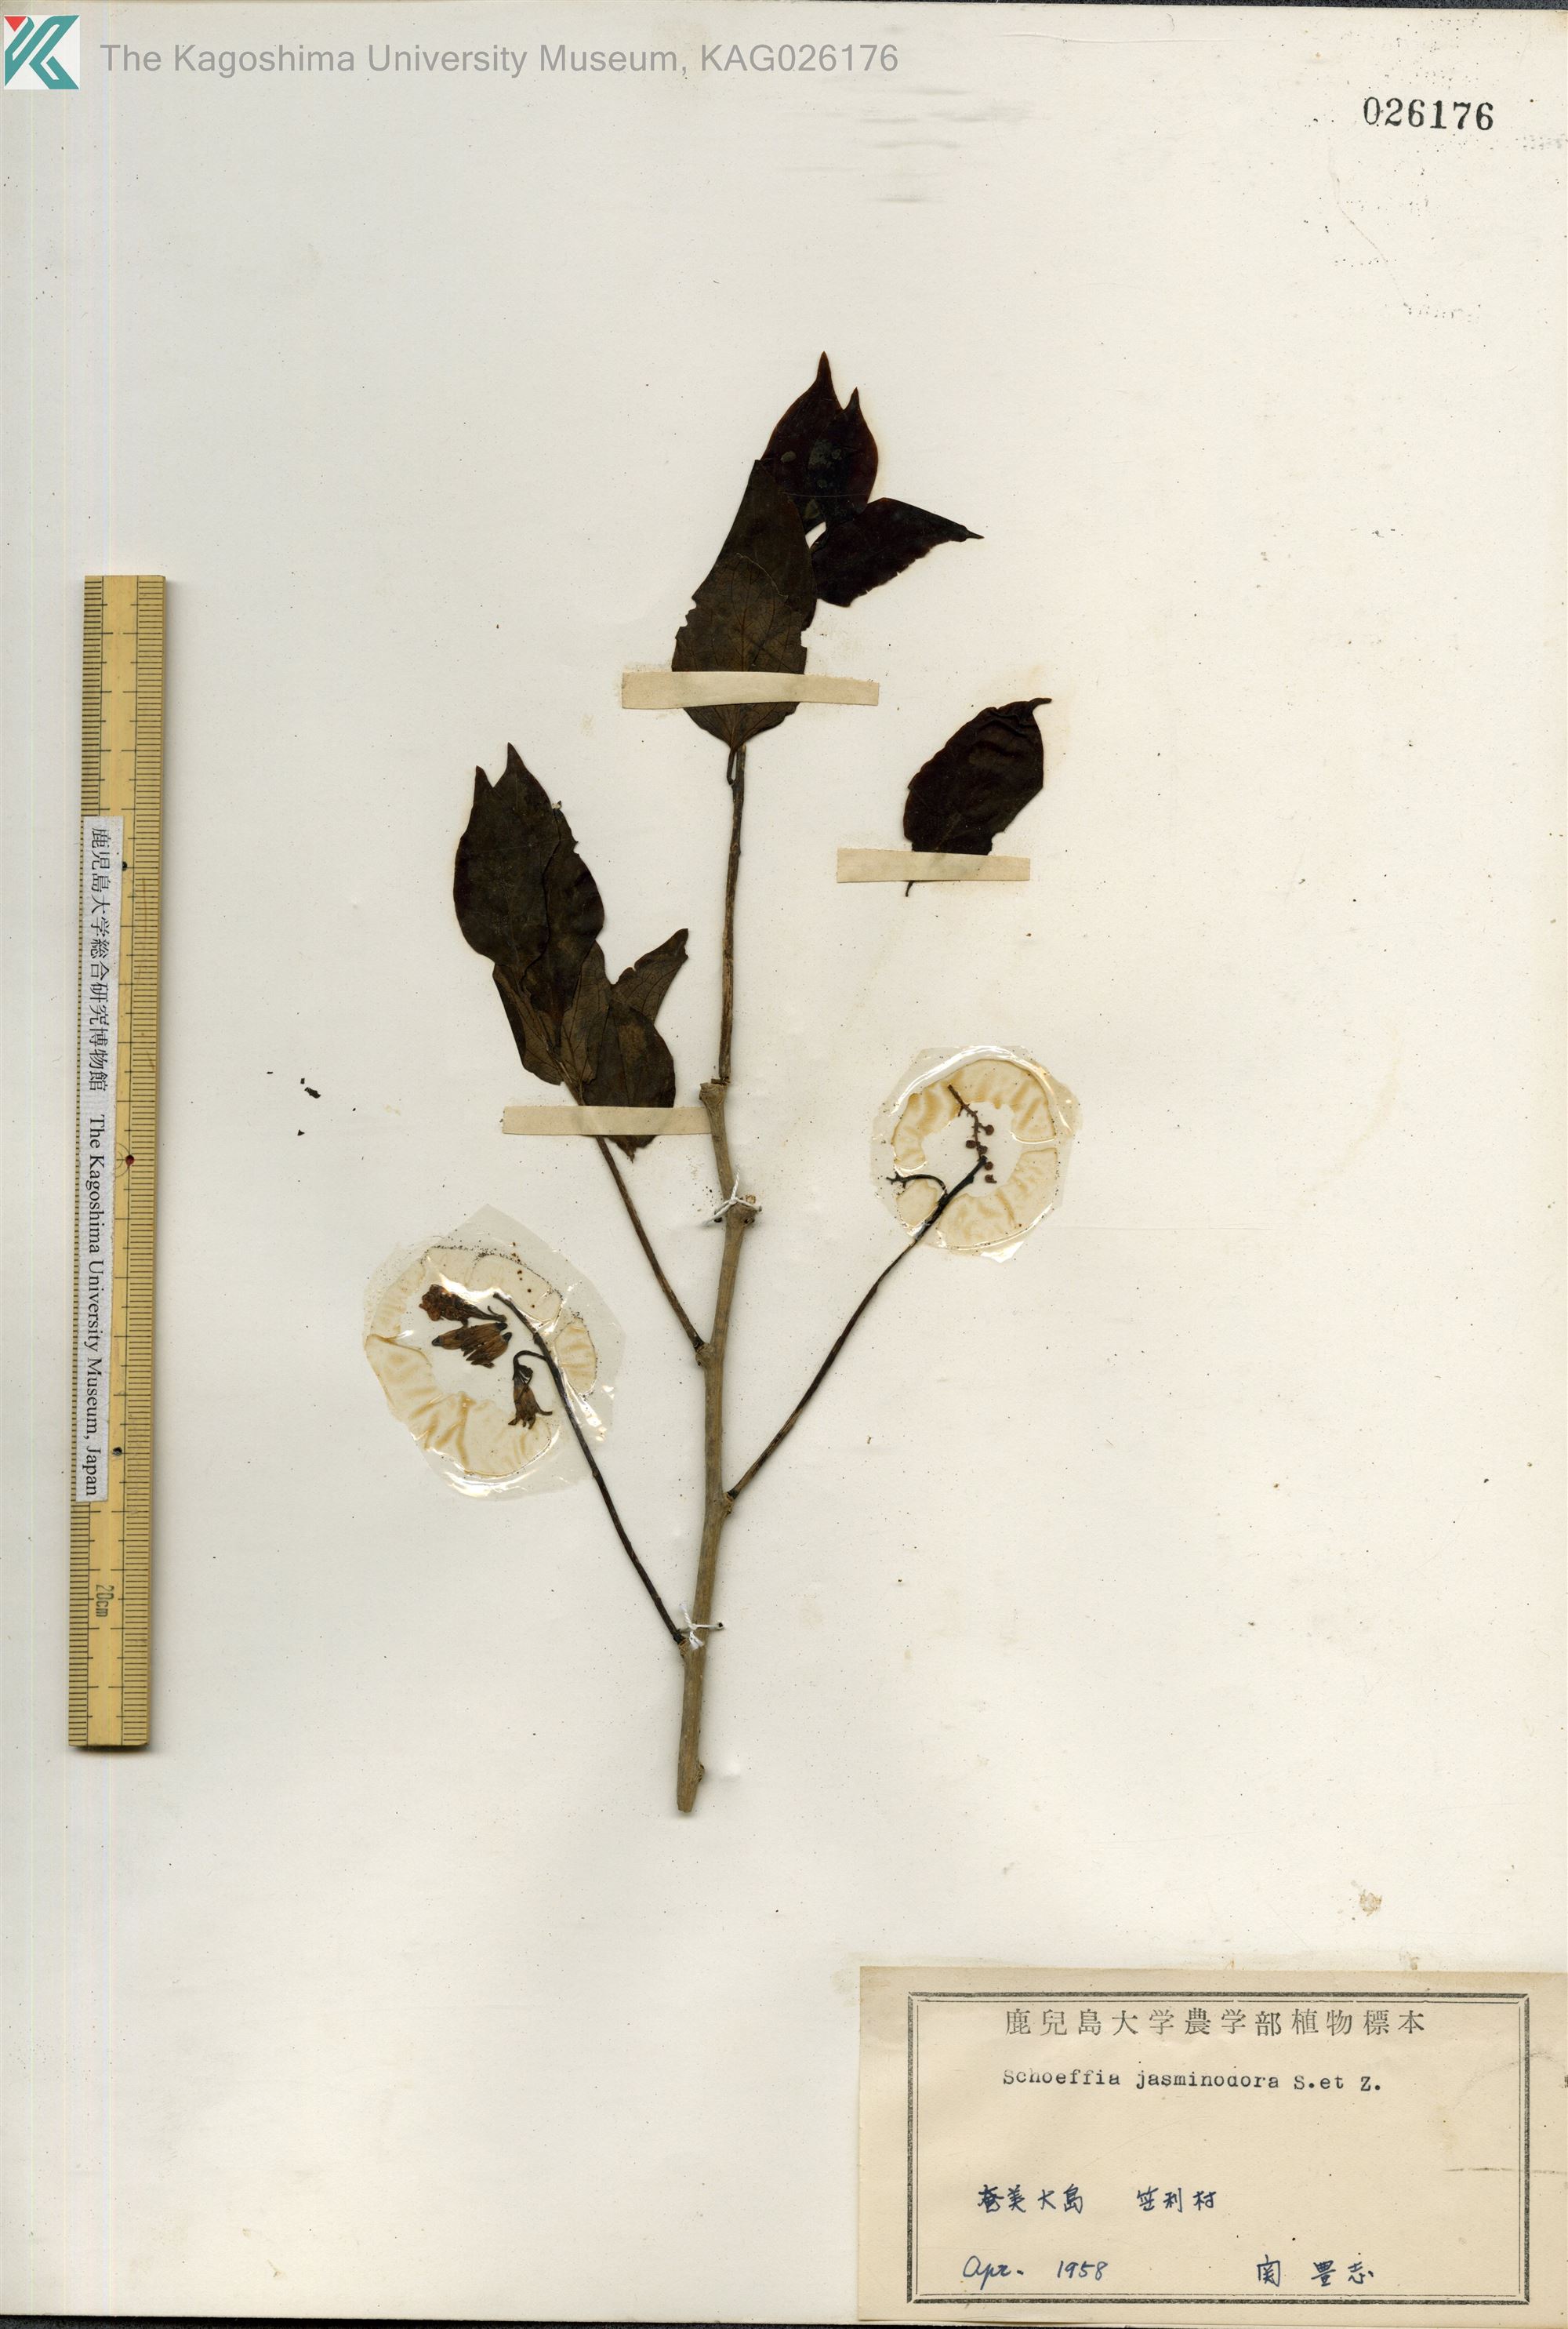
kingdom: Plantae
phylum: Tracheophyta
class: Magnoliopsida
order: Santalales
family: Schoepfiaceae
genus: Schoepfia
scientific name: Schoepfia jasminodora
